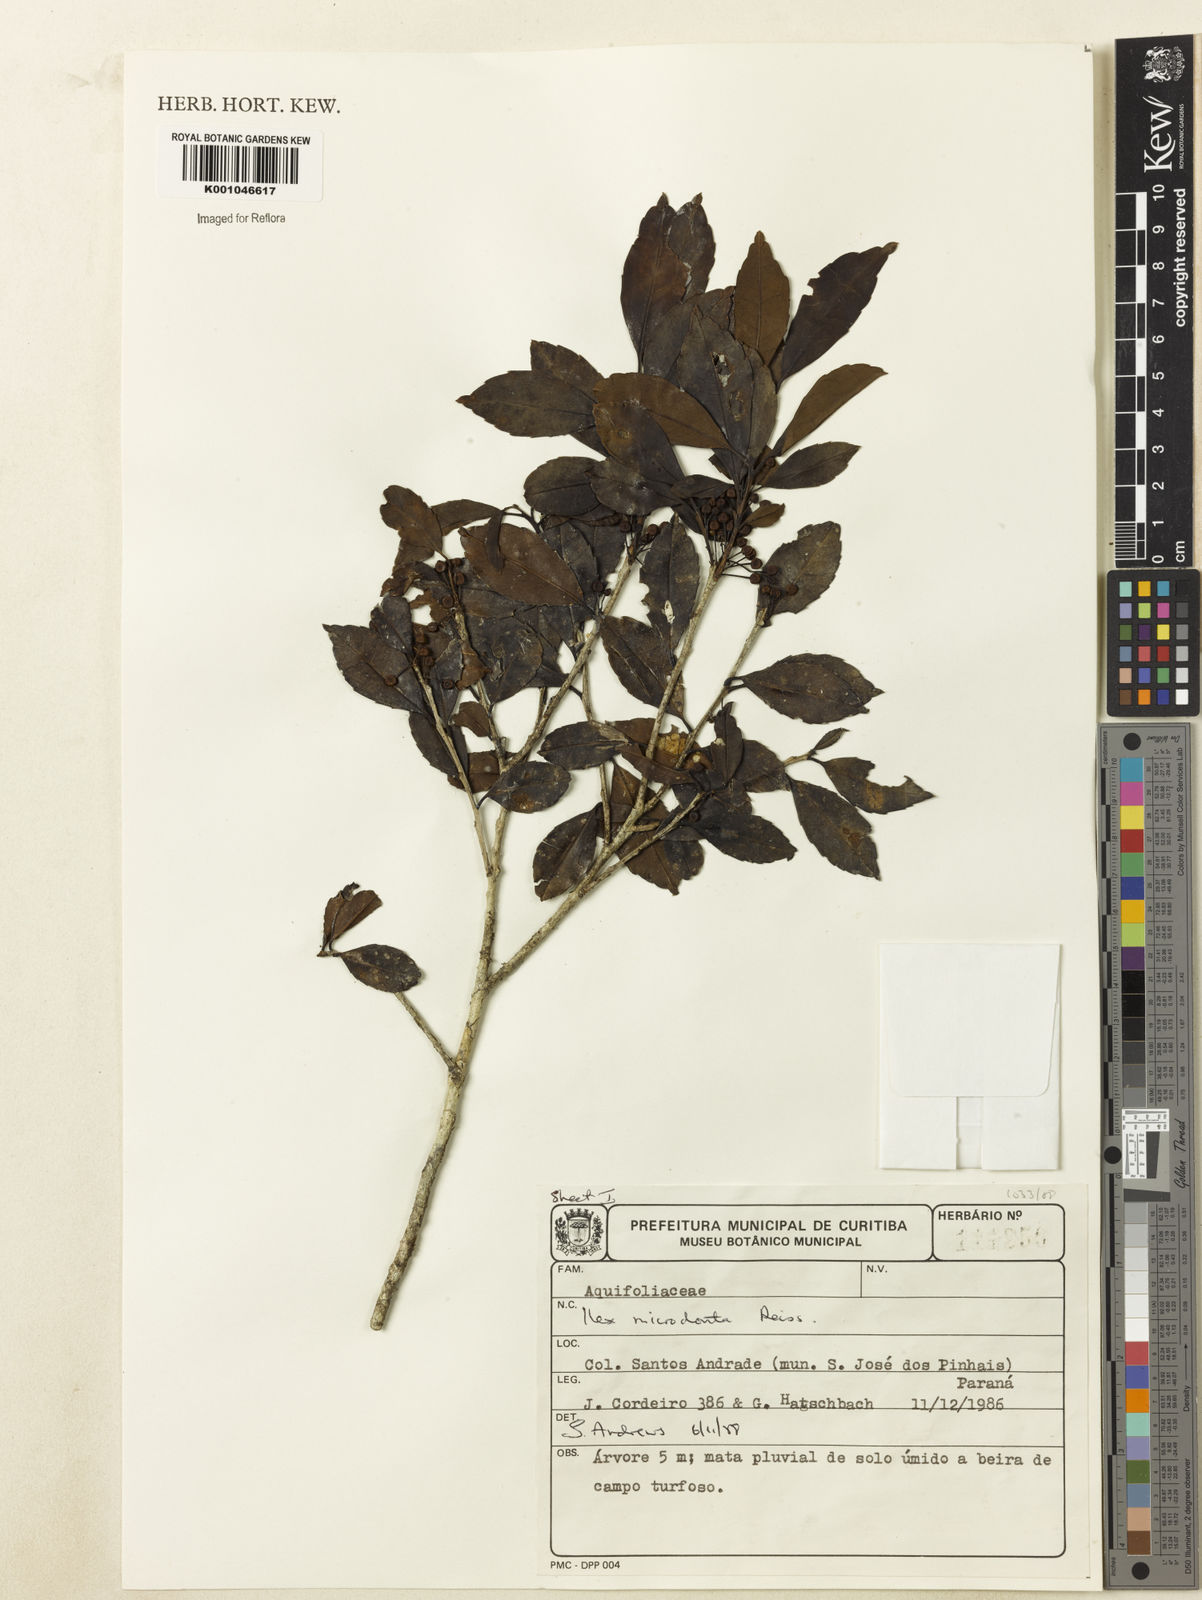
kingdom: Plantae
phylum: Tracheophyta
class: Magnoliopsida
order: Aquifoliales
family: Aquifoliaceae
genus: Ilex
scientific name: Ilex microdonta
